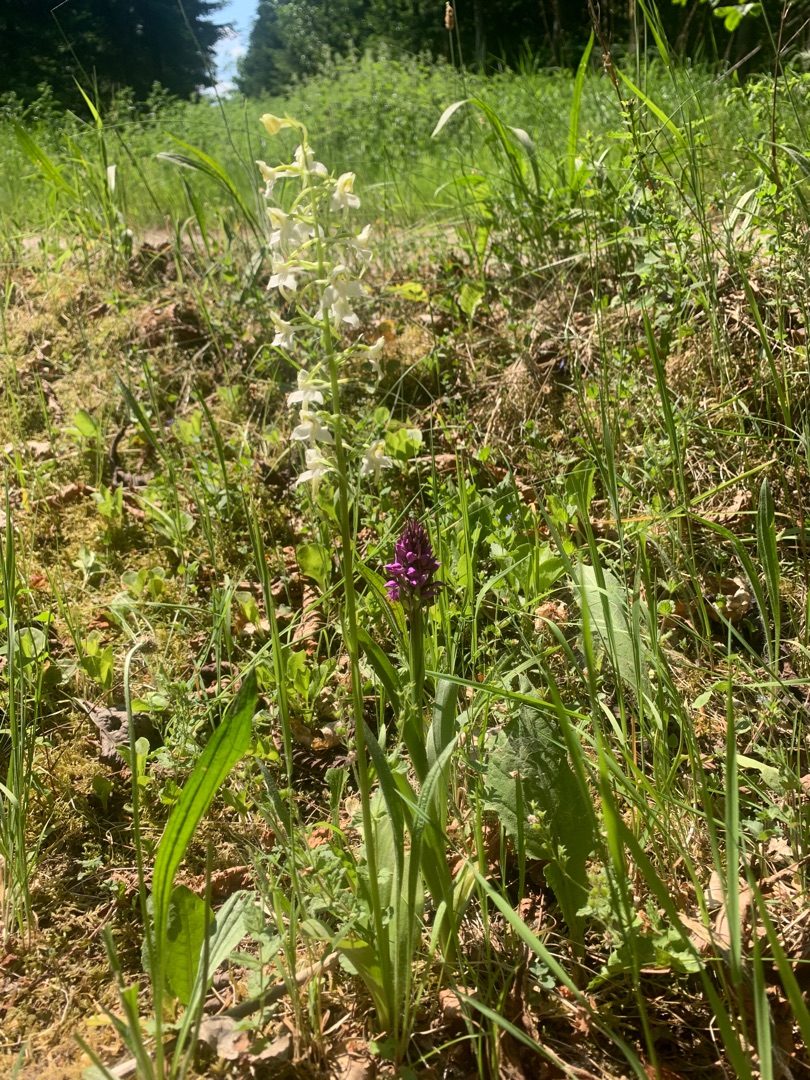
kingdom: Plantae
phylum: Tracheophyta
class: Liliopsida
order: Asparagales
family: Orchidaceae
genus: Platanthera
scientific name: Platanthera chlorantha
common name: Skov-gøgelilje
